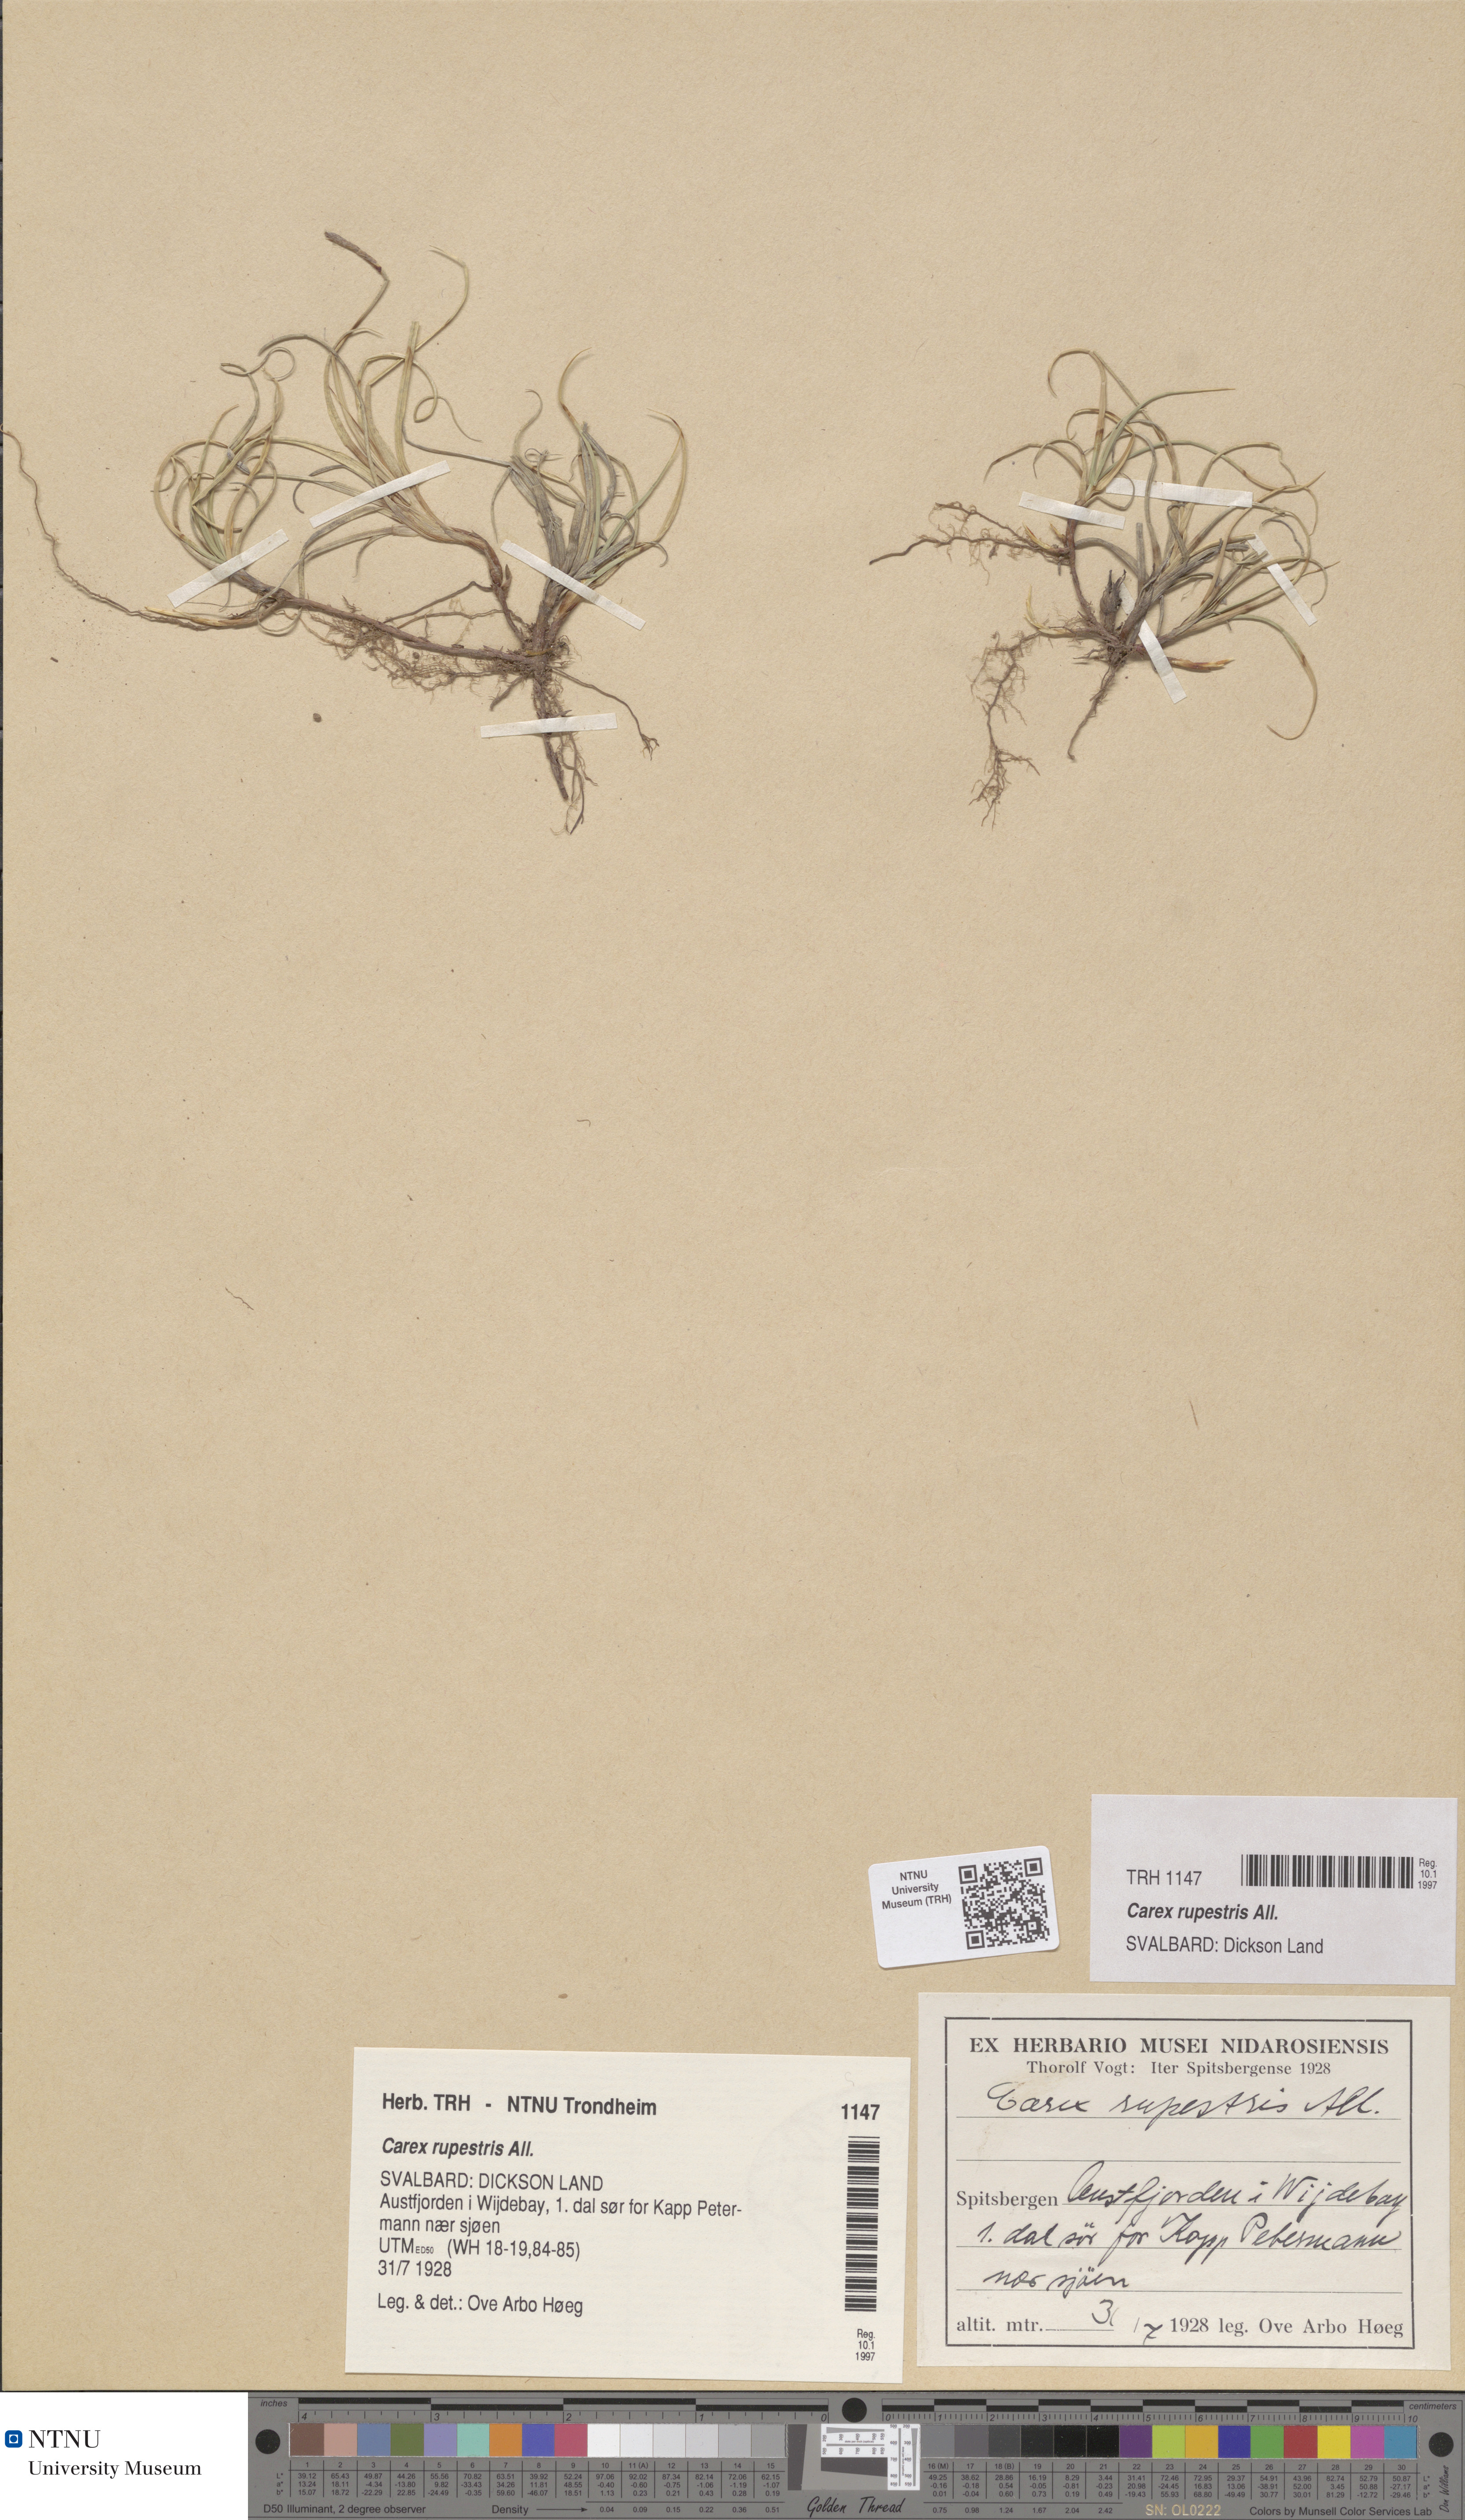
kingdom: Plantae
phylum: Tracheophyta
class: Liliopsida
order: Poales
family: Cyperaceae
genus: Carex
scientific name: Carex rupestris
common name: Rock sedge
